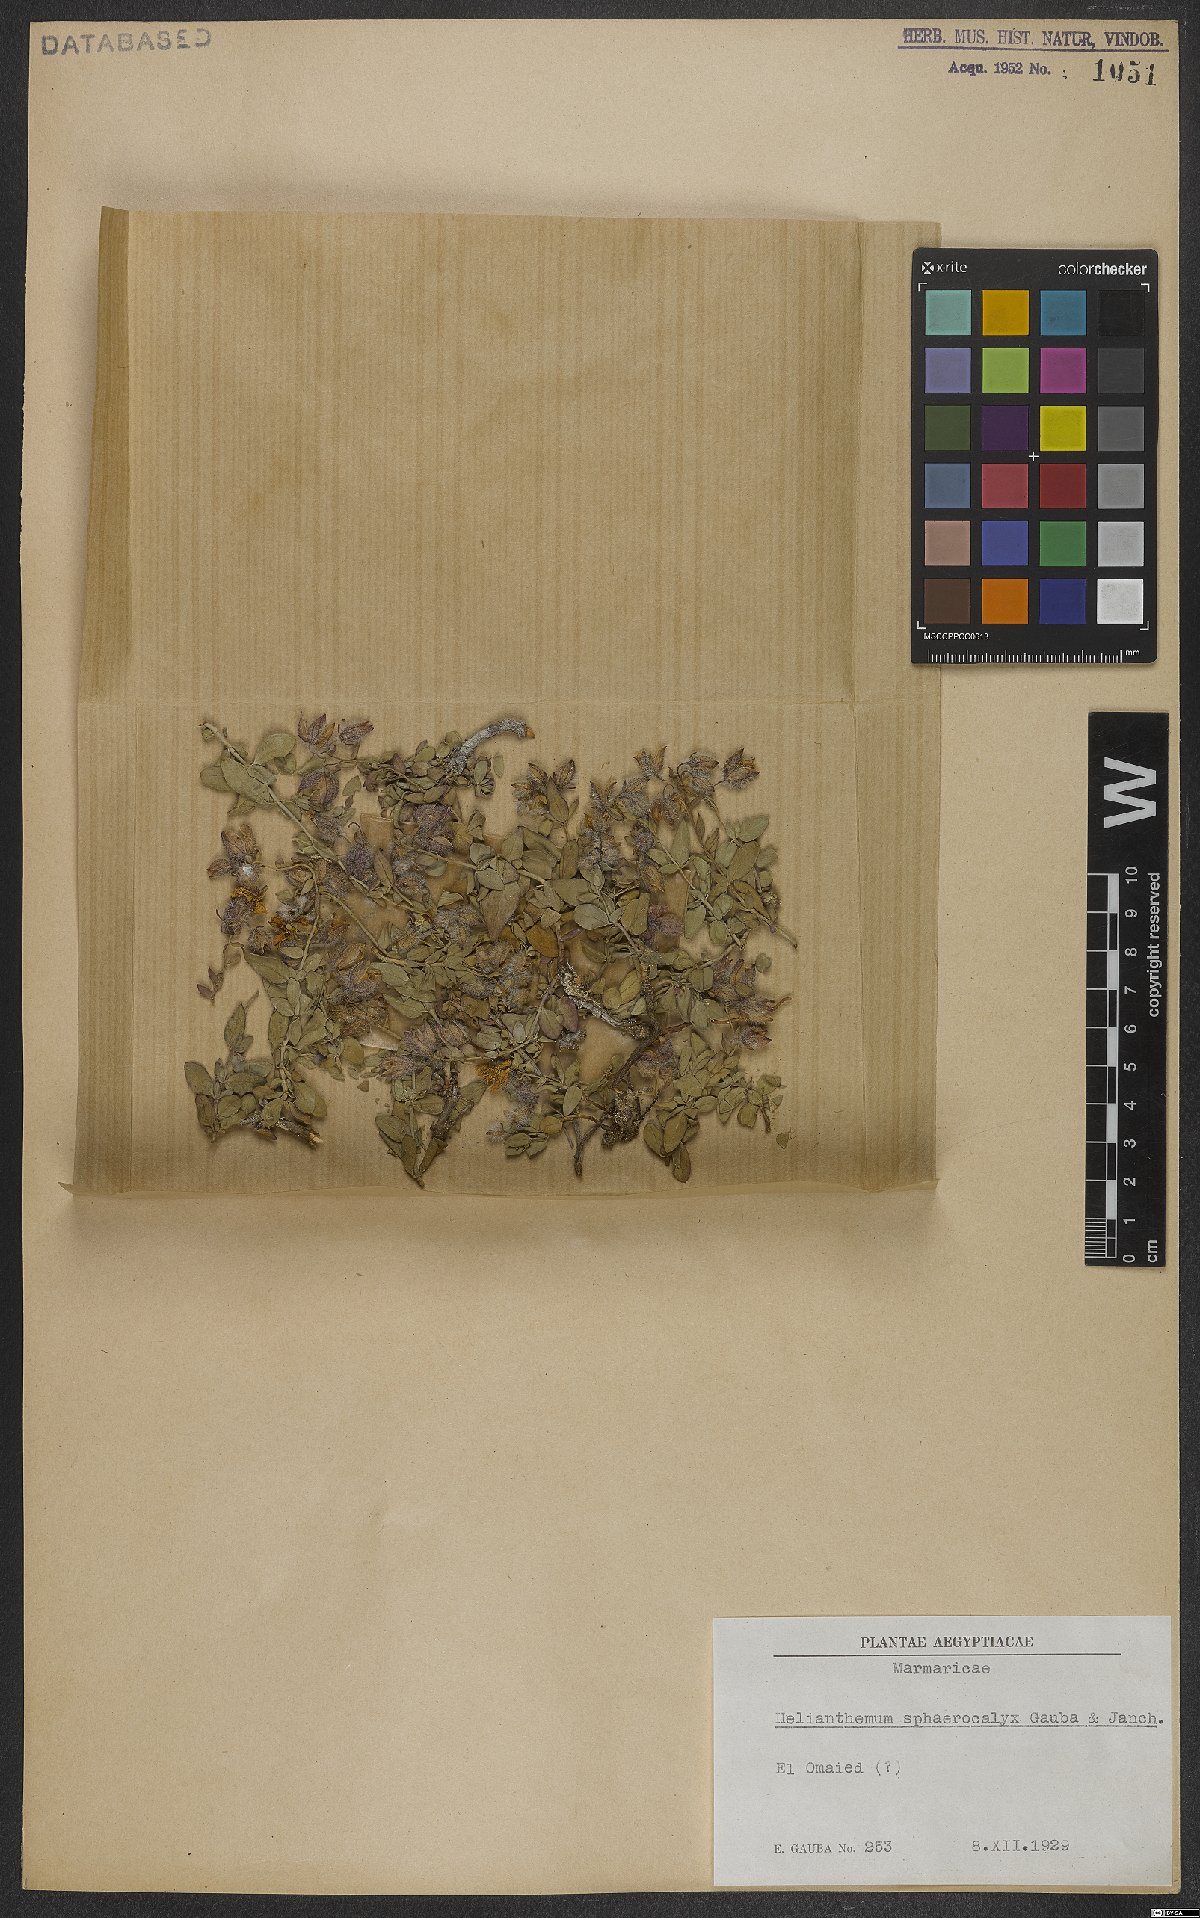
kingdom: Plantae
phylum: Tracheophyta
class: Magnoliopsida
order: Malvales
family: Cistaceae
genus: Helianthemum
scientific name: Helianthemum crassifolium
